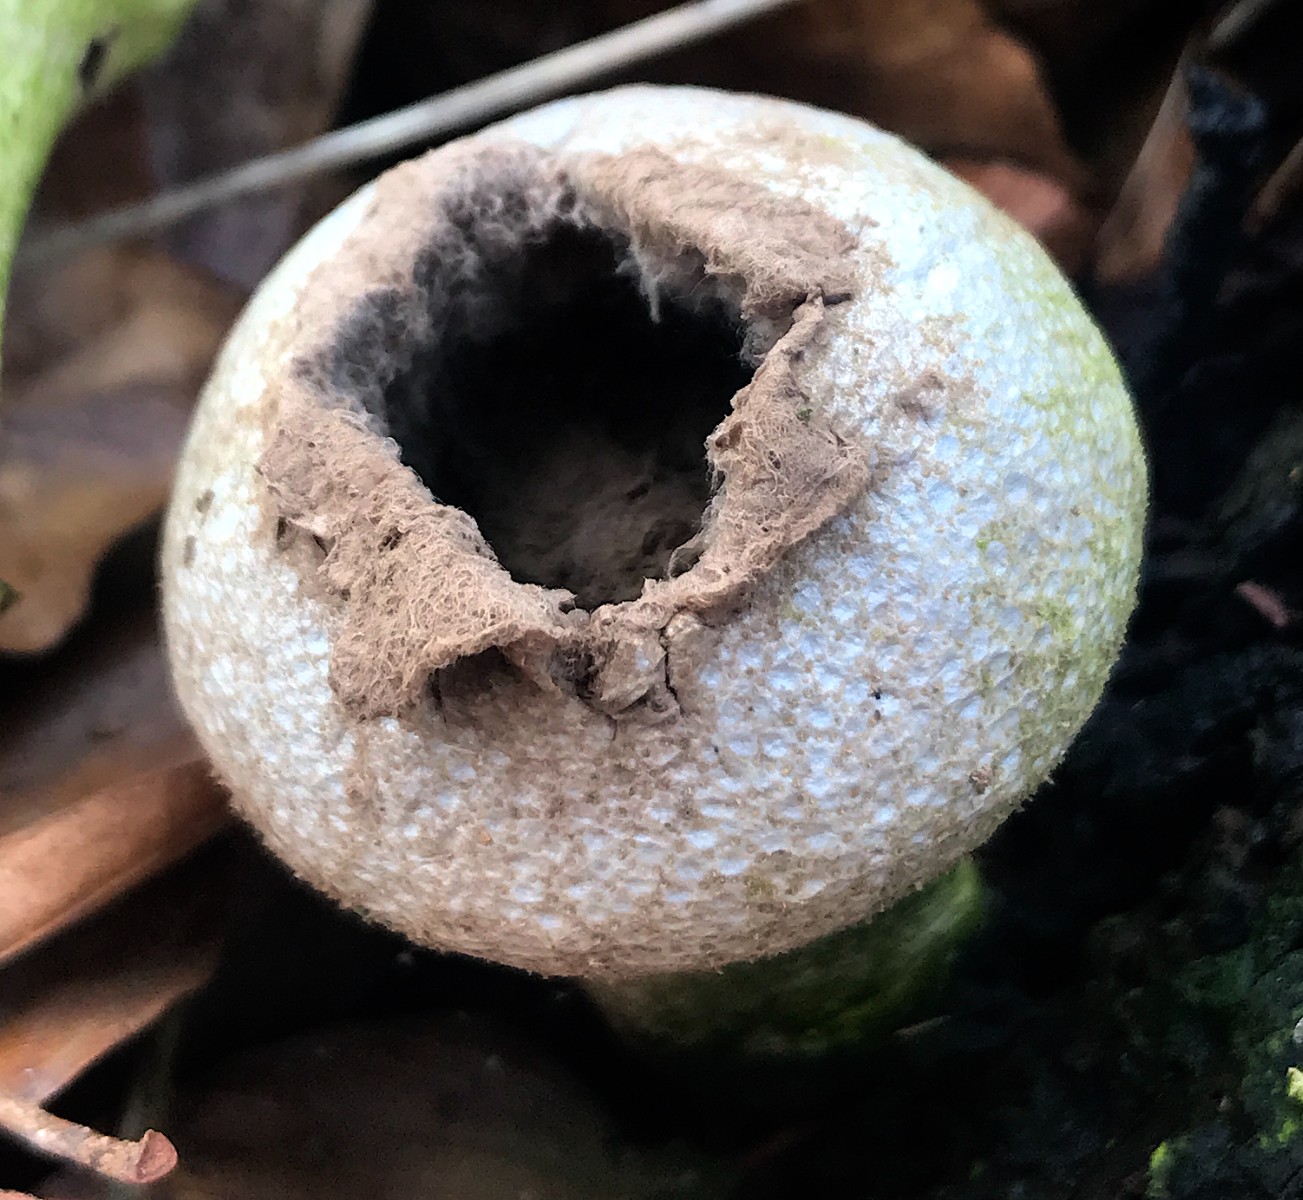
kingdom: Fungi
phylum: Basidiomycota
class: Agaricomycetes
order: Agaricales
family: Lycoperdaceae
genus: Lycoperdon
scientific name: Lycoperdon perlatum
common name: krystal-støvbold
